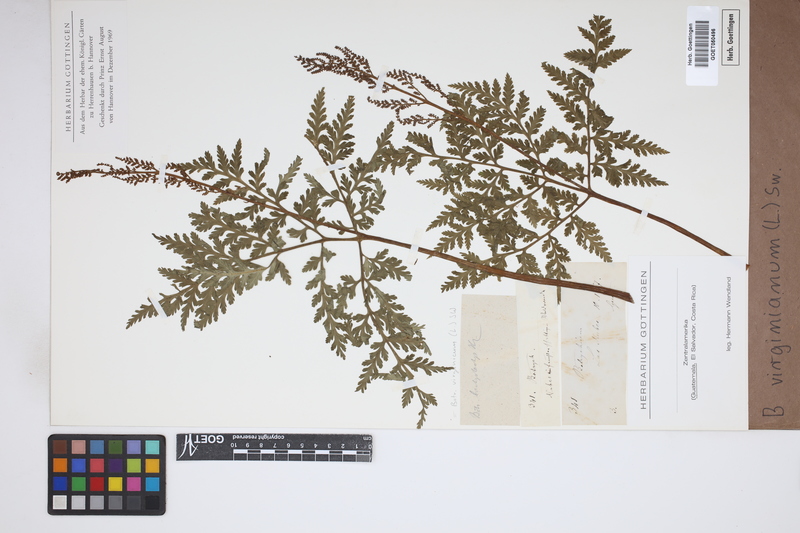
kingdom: Plantae
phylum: Tracheophyta
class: Polypodiopsida
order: Ophioglossales
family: Ophioglossaceae
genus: Botrychium
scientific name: Botrychium virginianum
